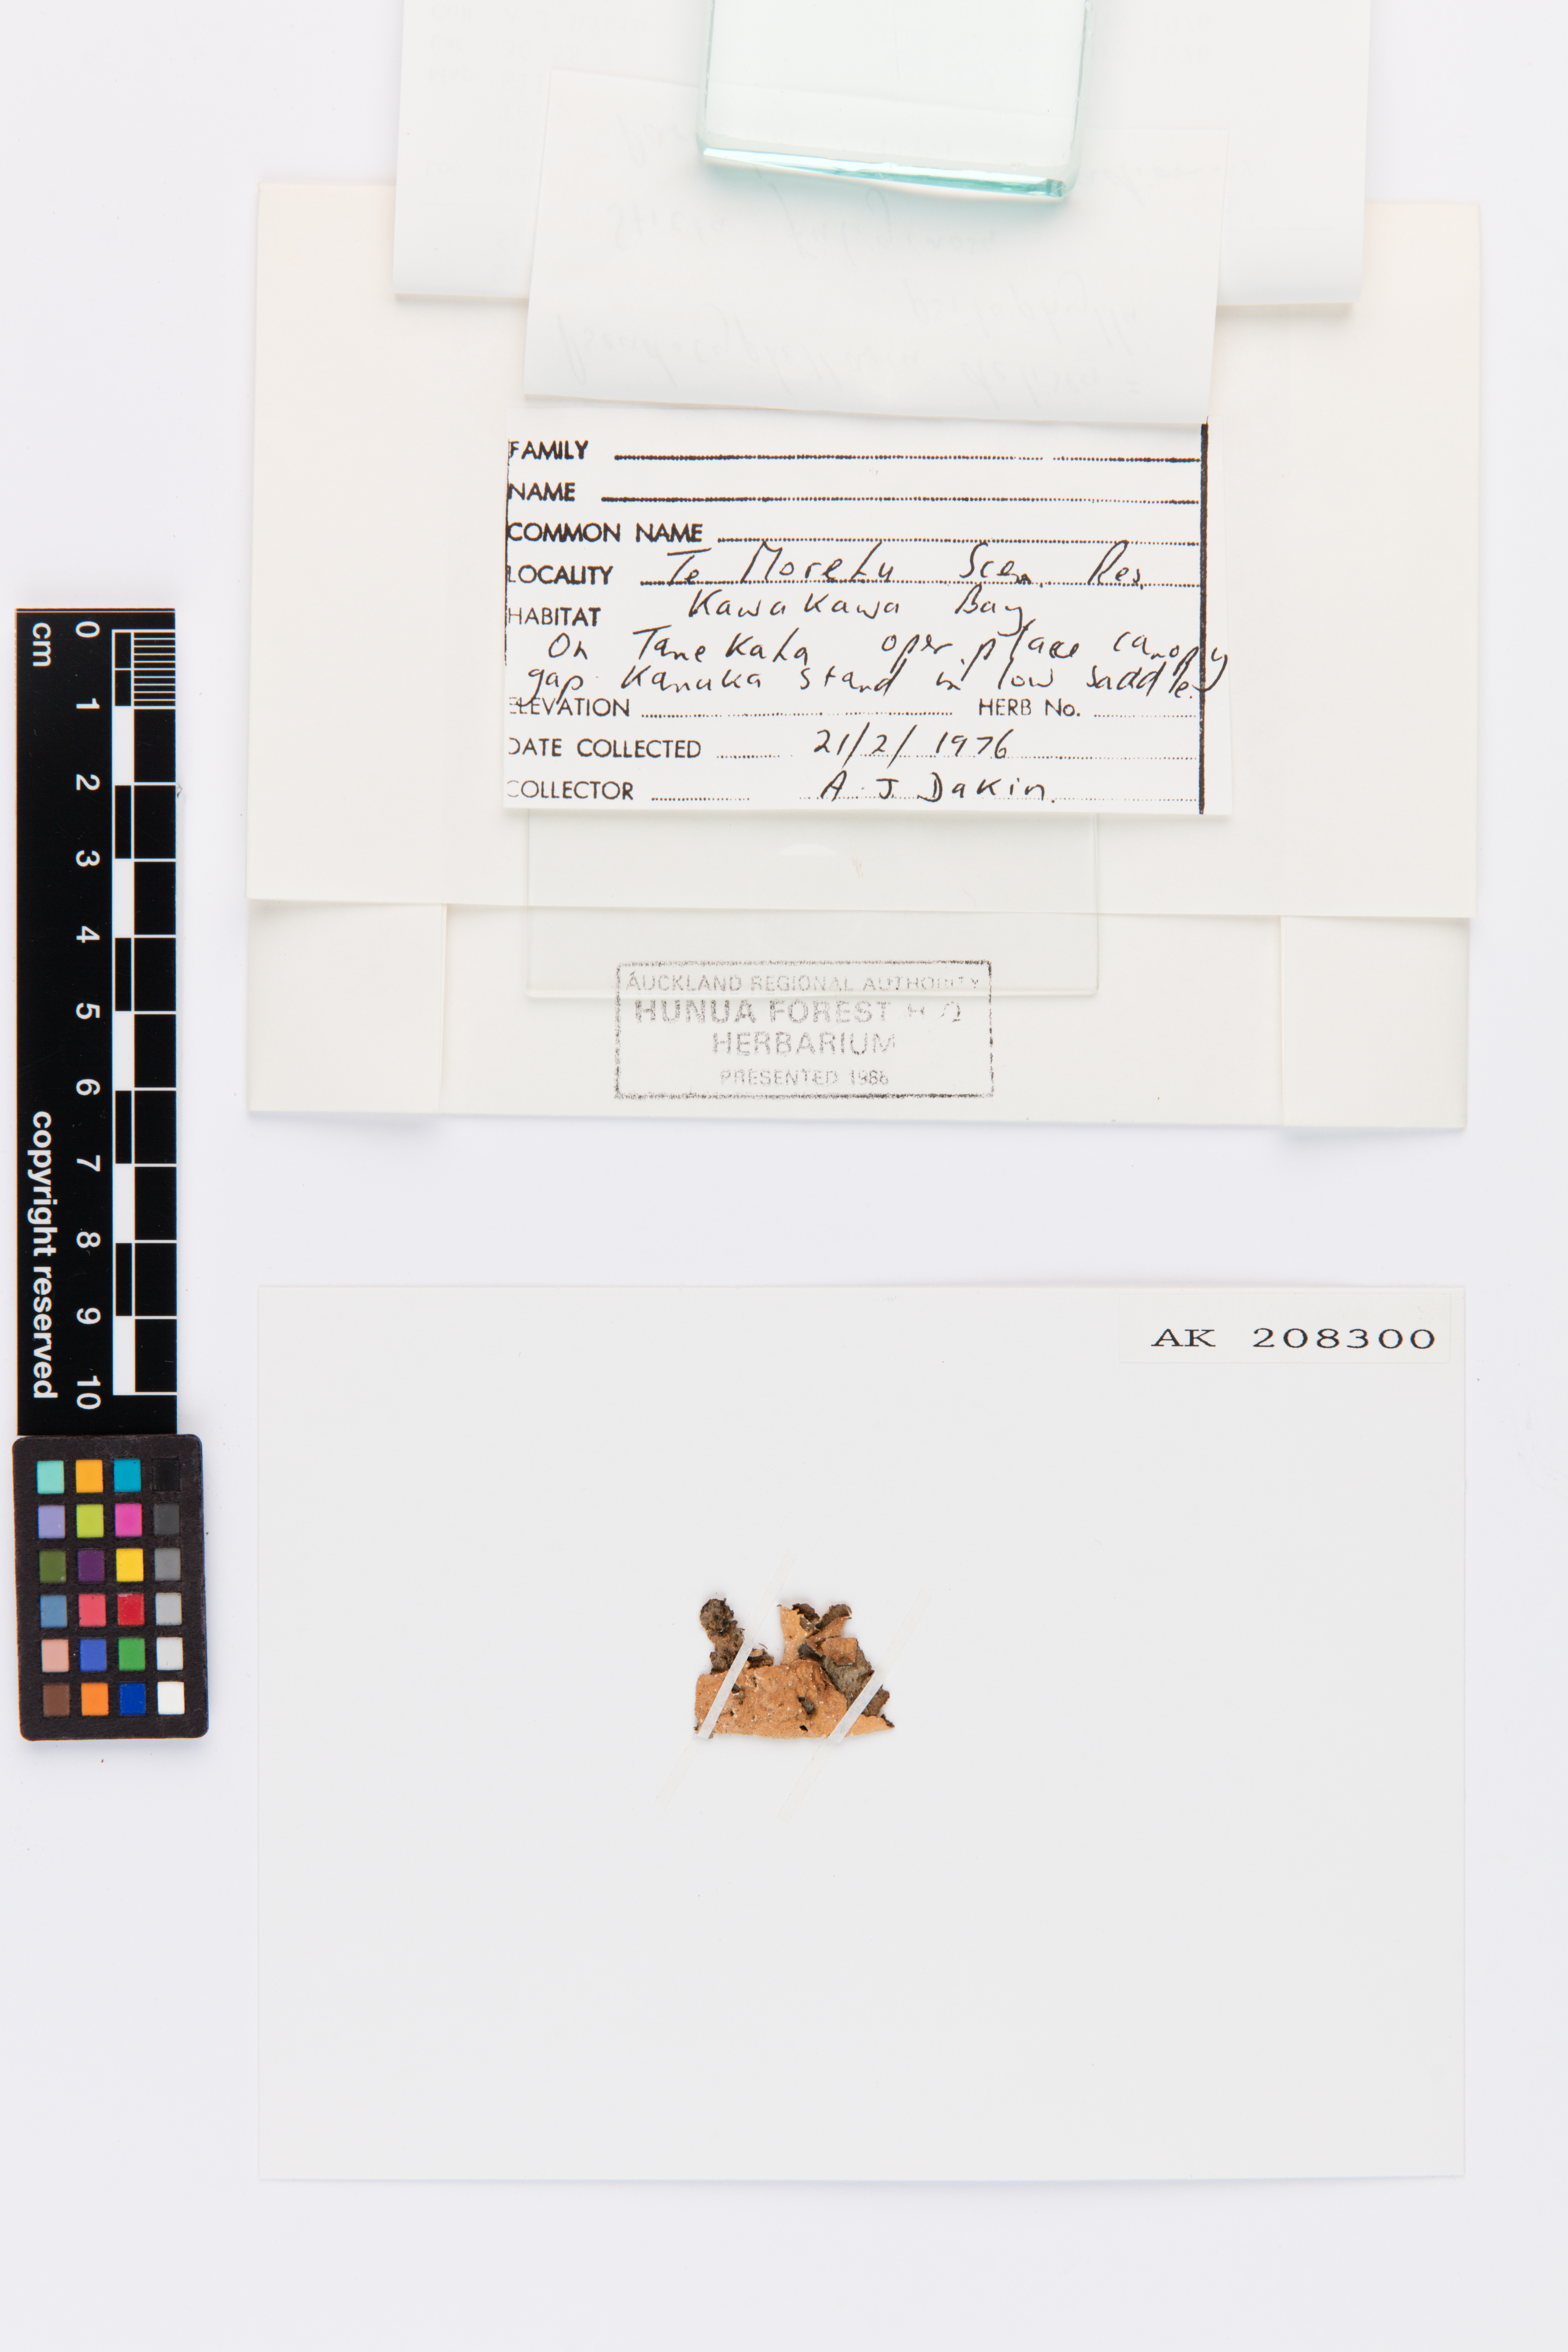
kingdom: Fungi
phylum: Ascomycota
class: Lecanoromycetes
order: Peltigerales
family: Lobariaceae
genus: Sticta
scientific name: Sticta fuliginosa
